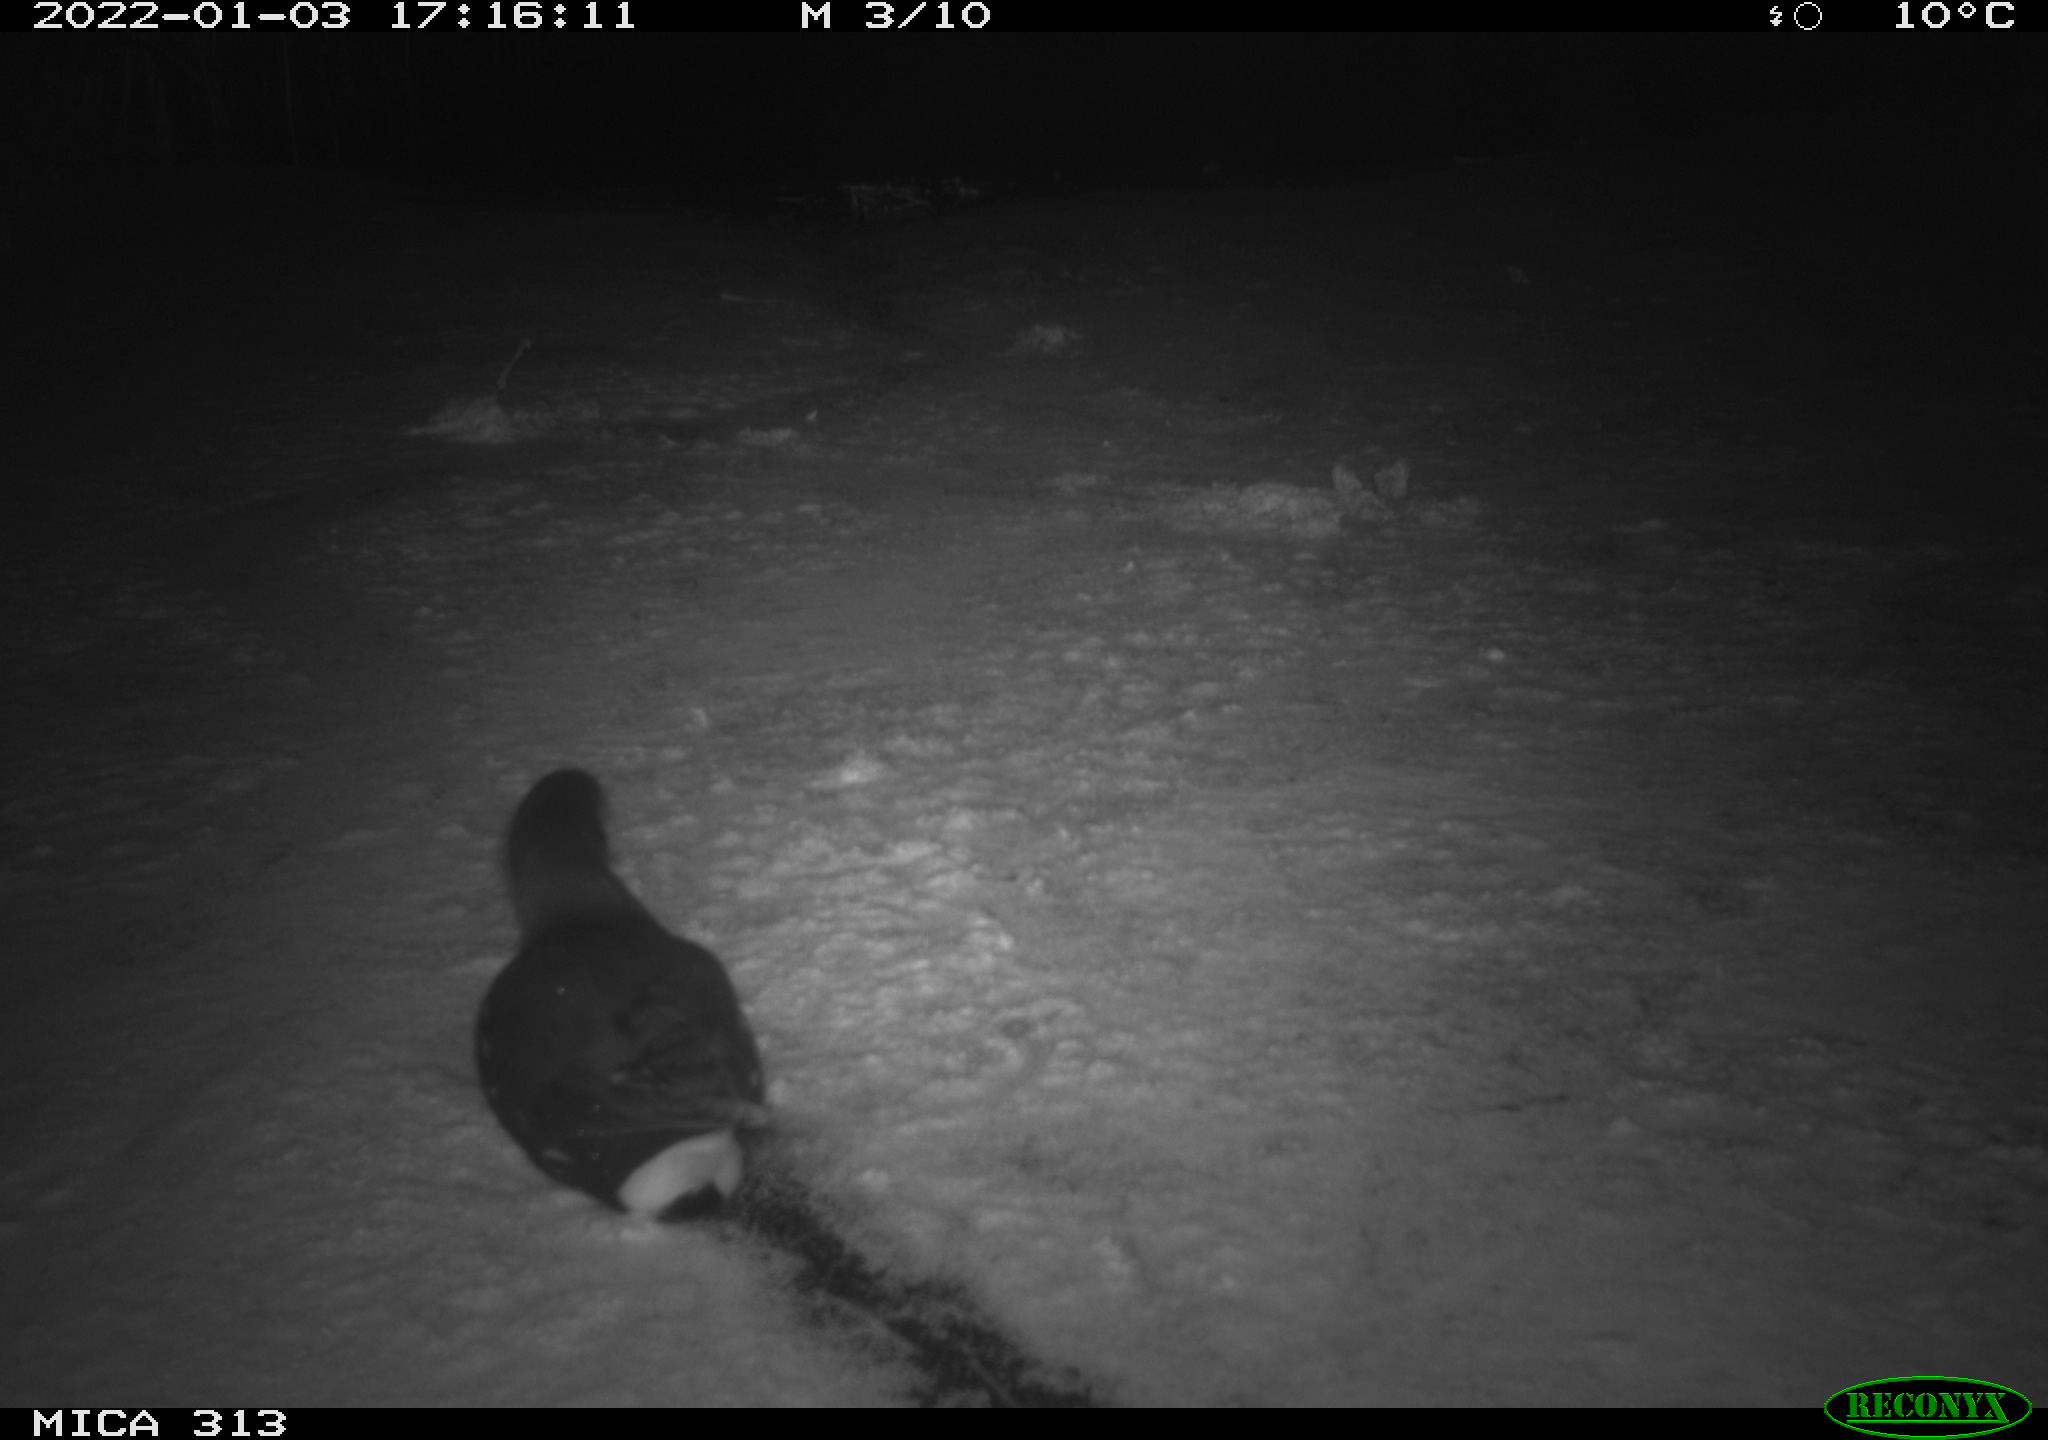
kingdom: Animalia
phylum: Chordata
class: Aves
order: Gruiformes
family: Rallidae
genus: Fulica
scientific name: Fulica atra
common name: Eurasian coot
